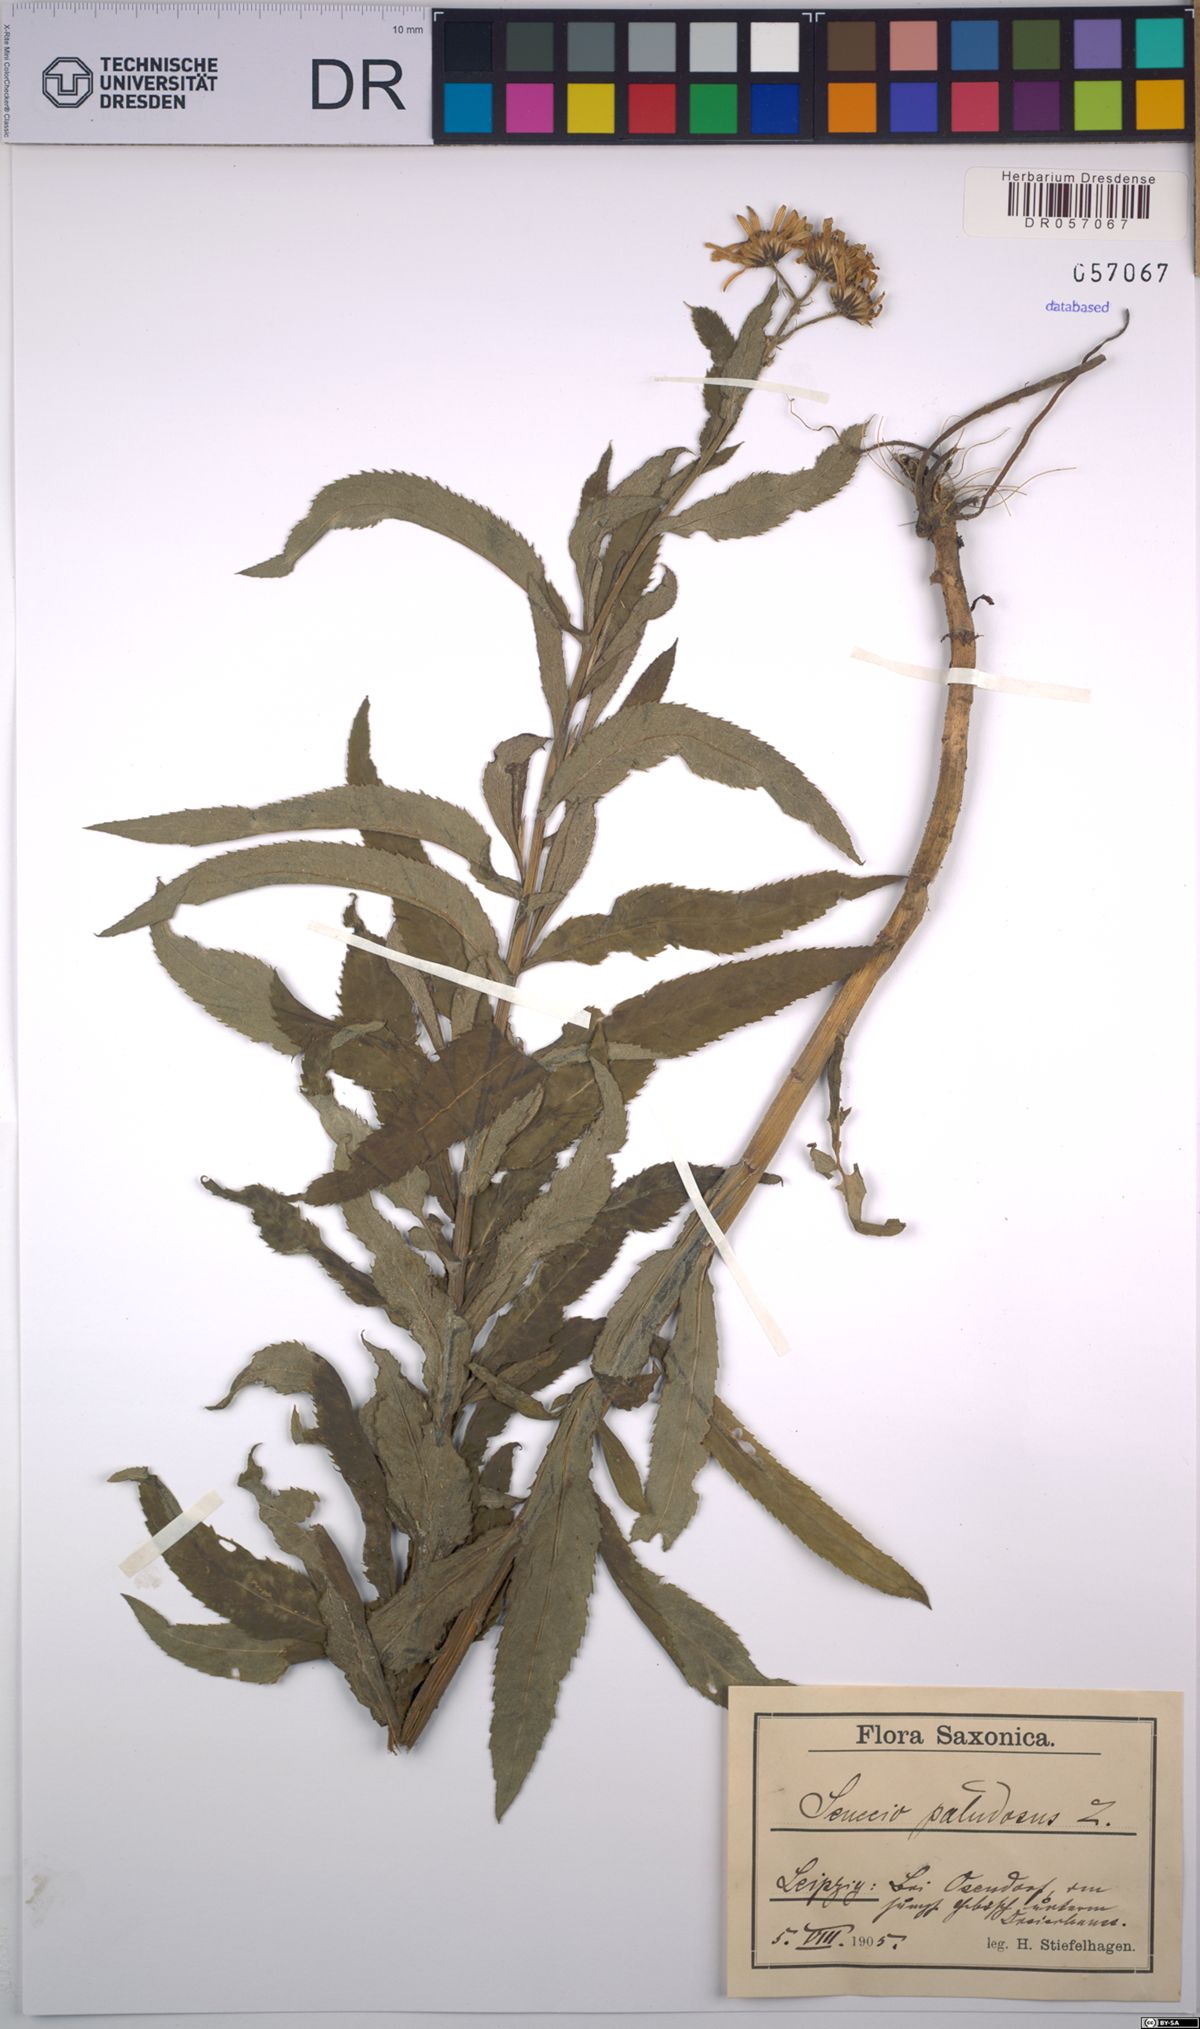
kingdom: Plantae
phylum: Tracheophyta
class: Magnoliopsida
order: Asterales
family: Asteraceae
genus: Jacobaea
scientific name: Jacobaea paludosa
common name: Fen ragwort
